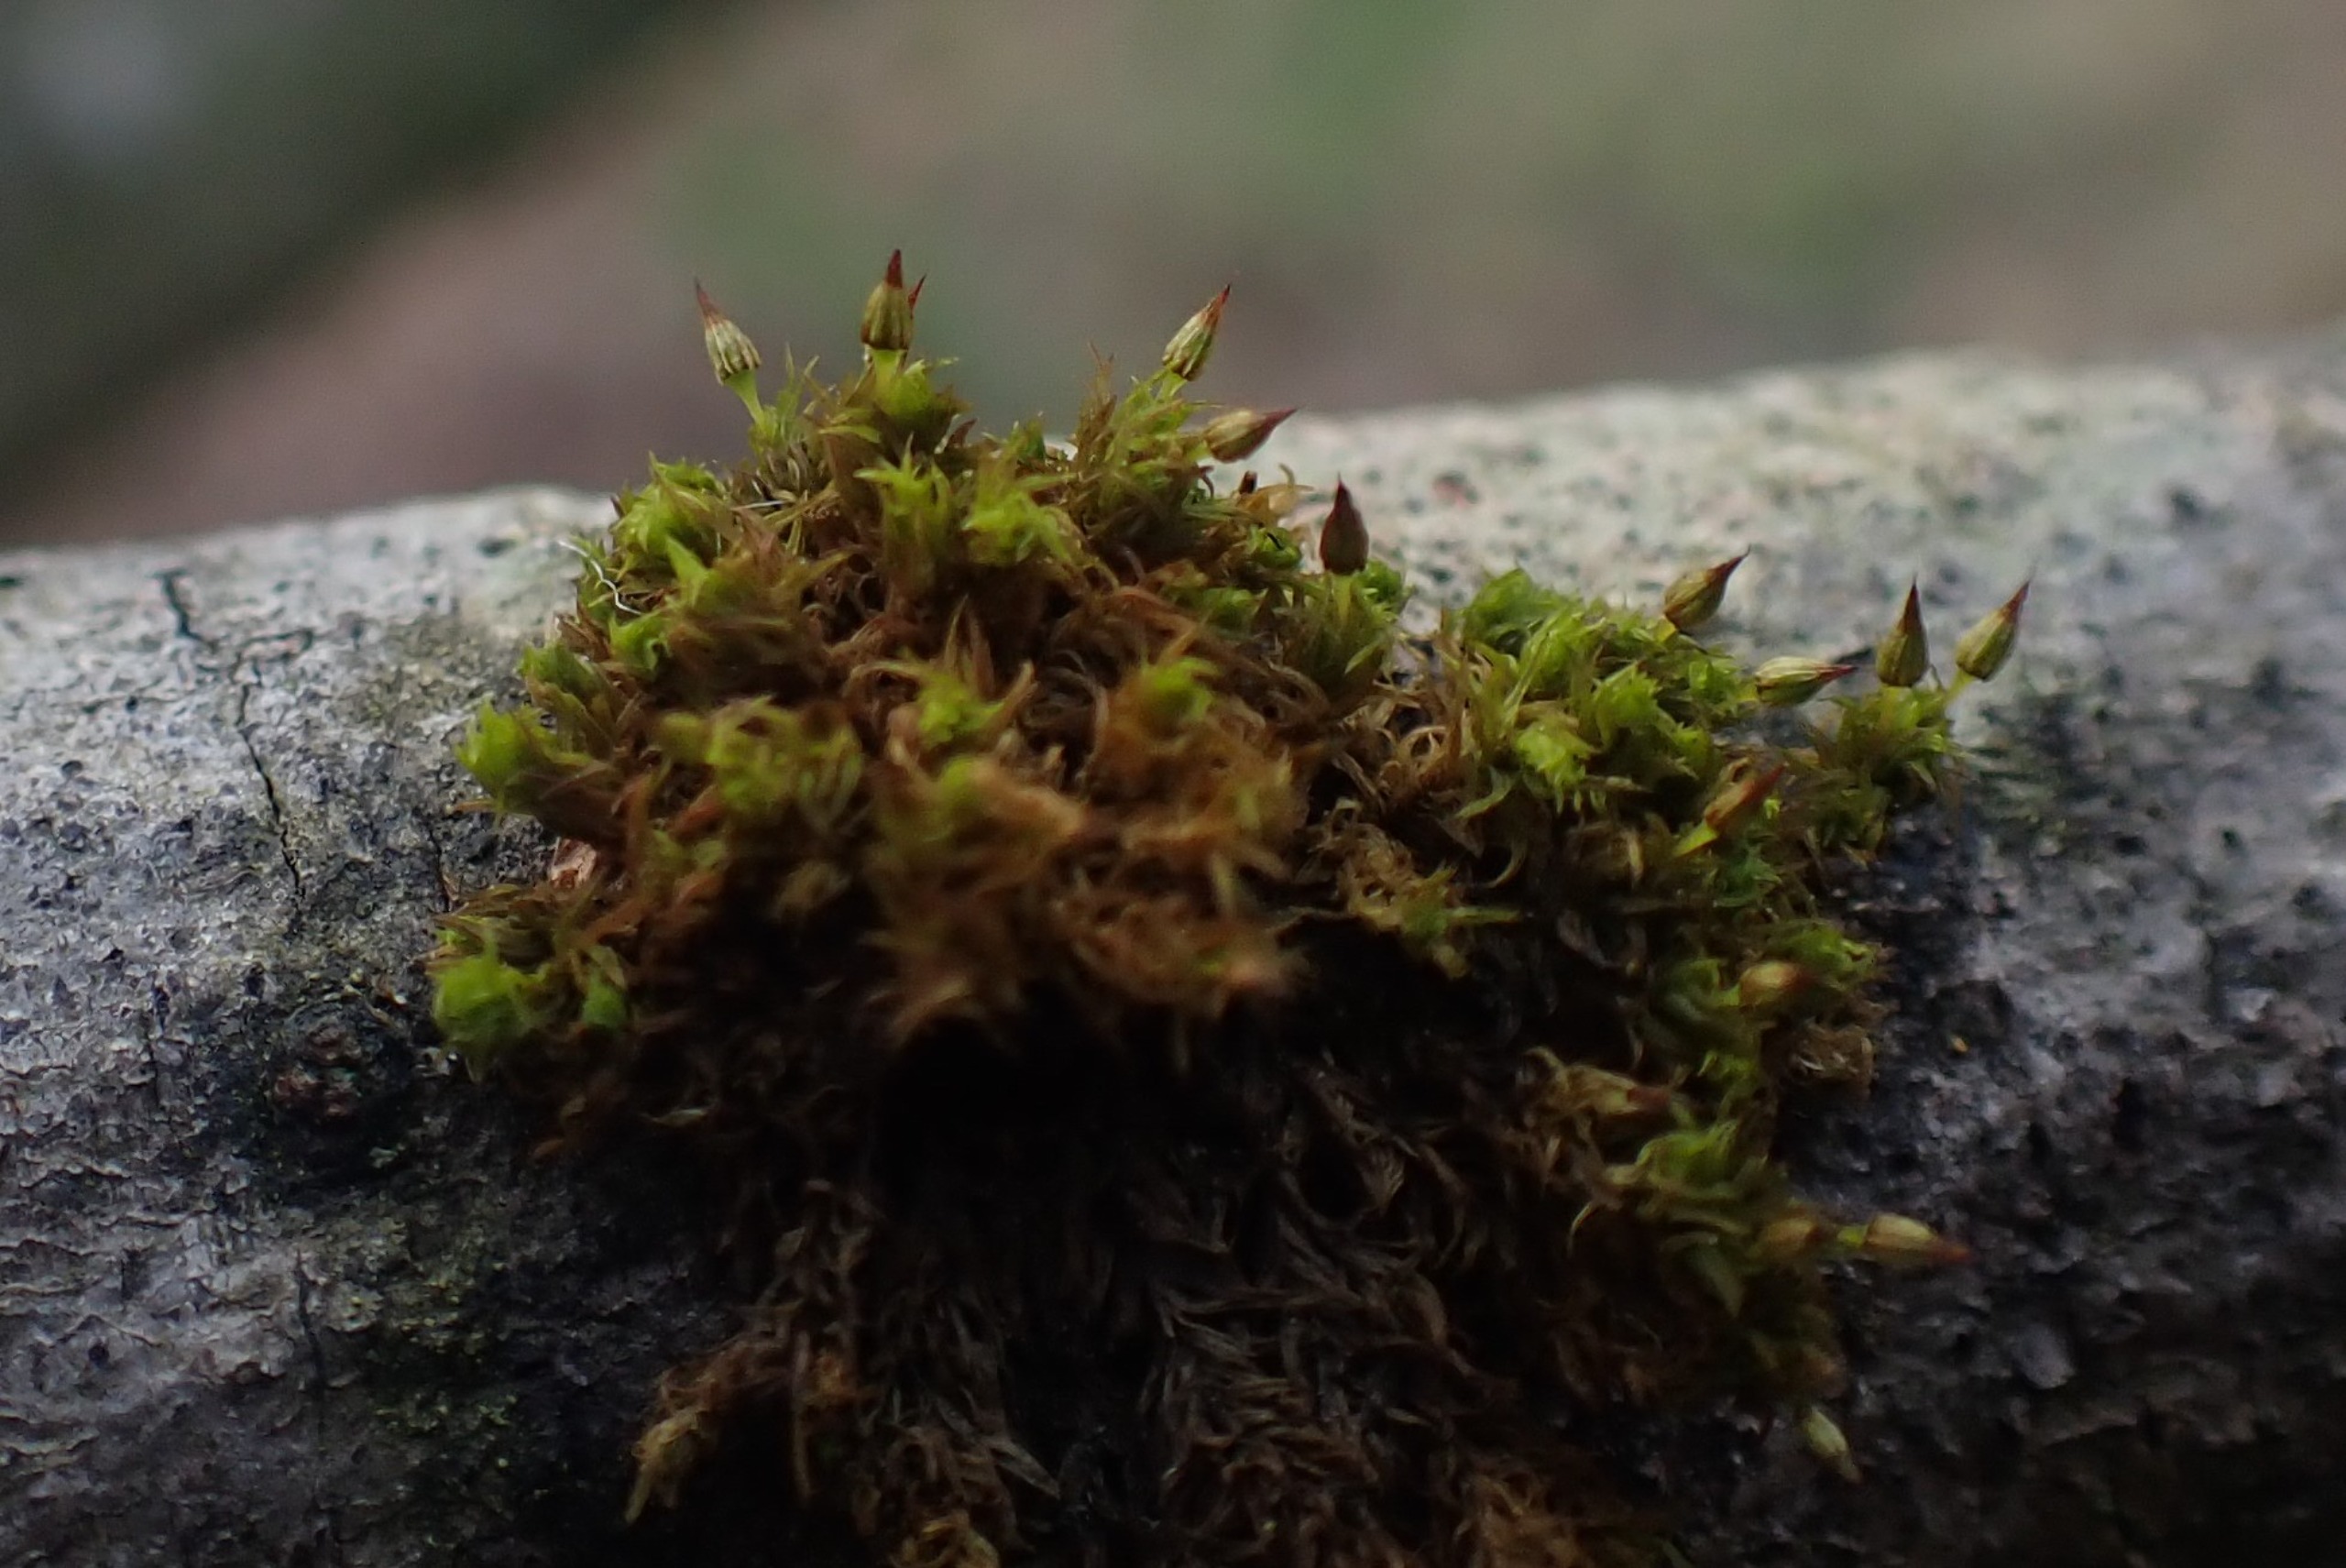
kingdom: Plantae
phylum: Bryophyta
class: Bryopsida
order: Orthotrichales
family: Orthotrichaceae
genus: Orthotrichum
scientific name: Orthotrichum pulchellum
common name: Smuk furehætte
